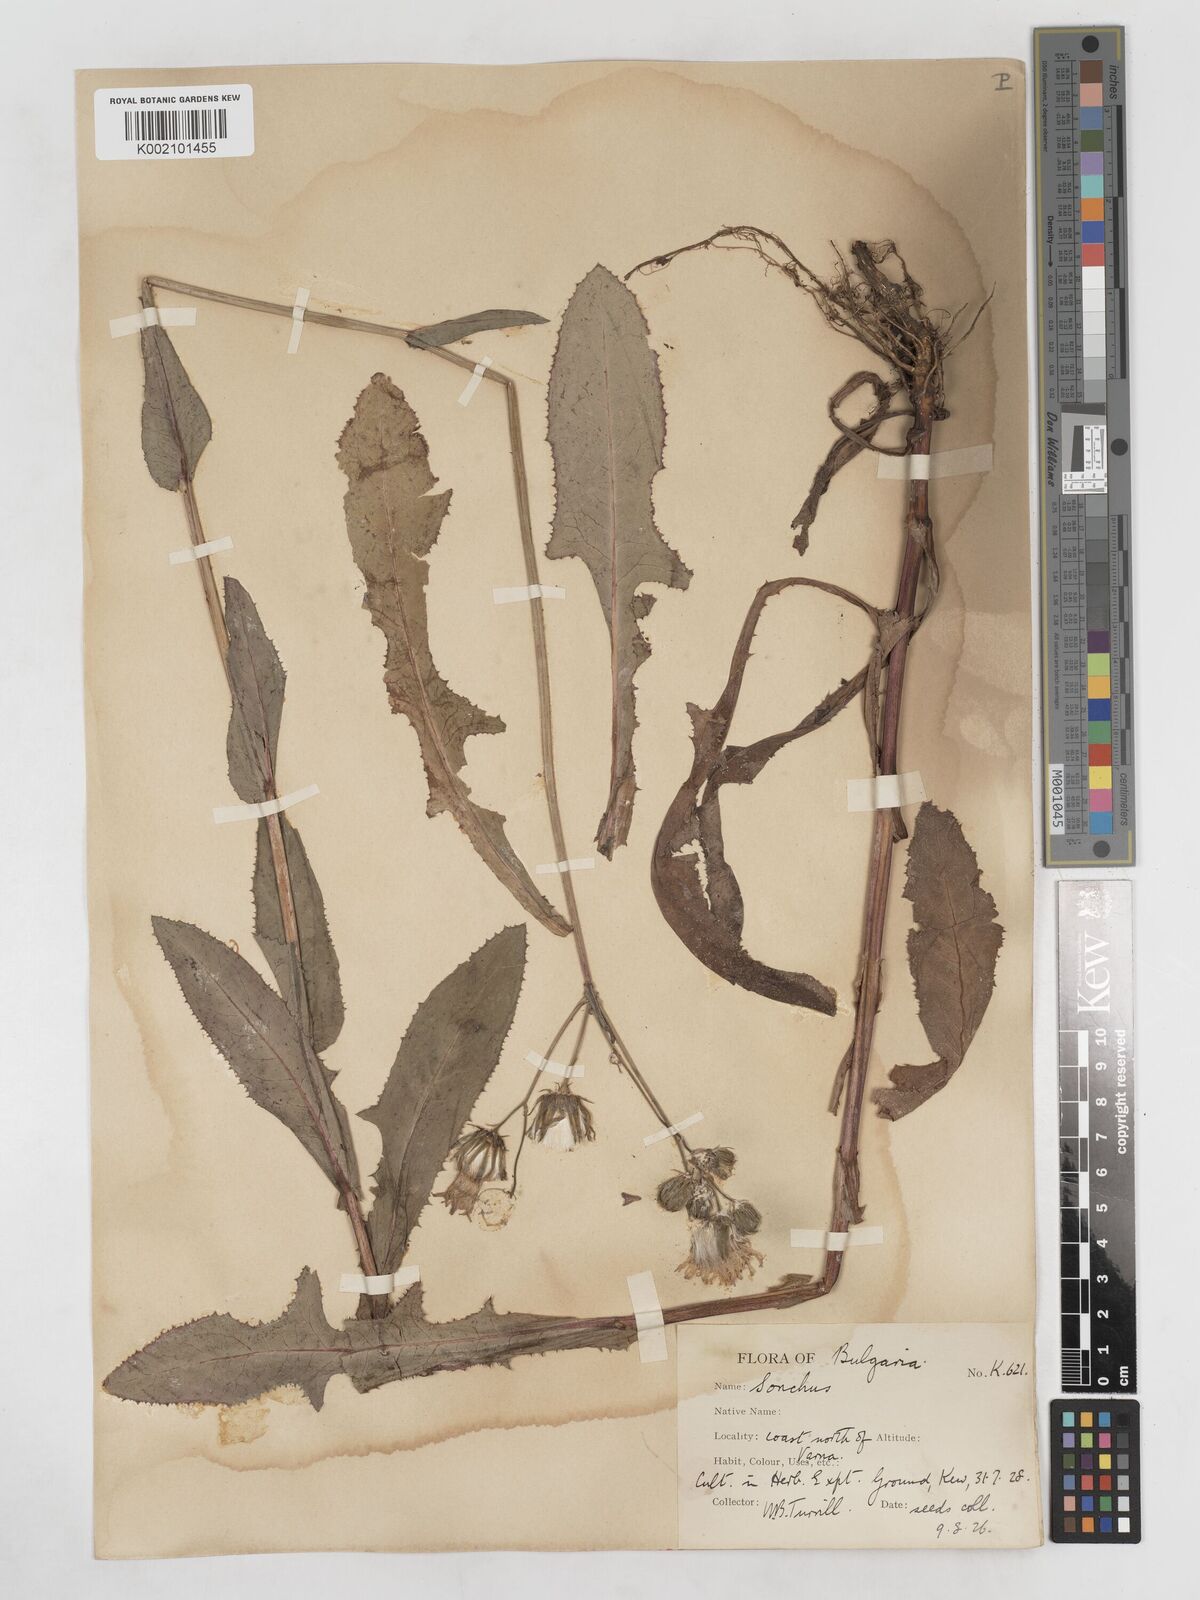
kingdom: Plantae
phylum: Tracheophyta
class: Magnoliopsida
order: Asterales
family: Asteraceae
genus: Sonchus
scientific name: Sonchus arvensis
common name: Perennial sow-thistle
